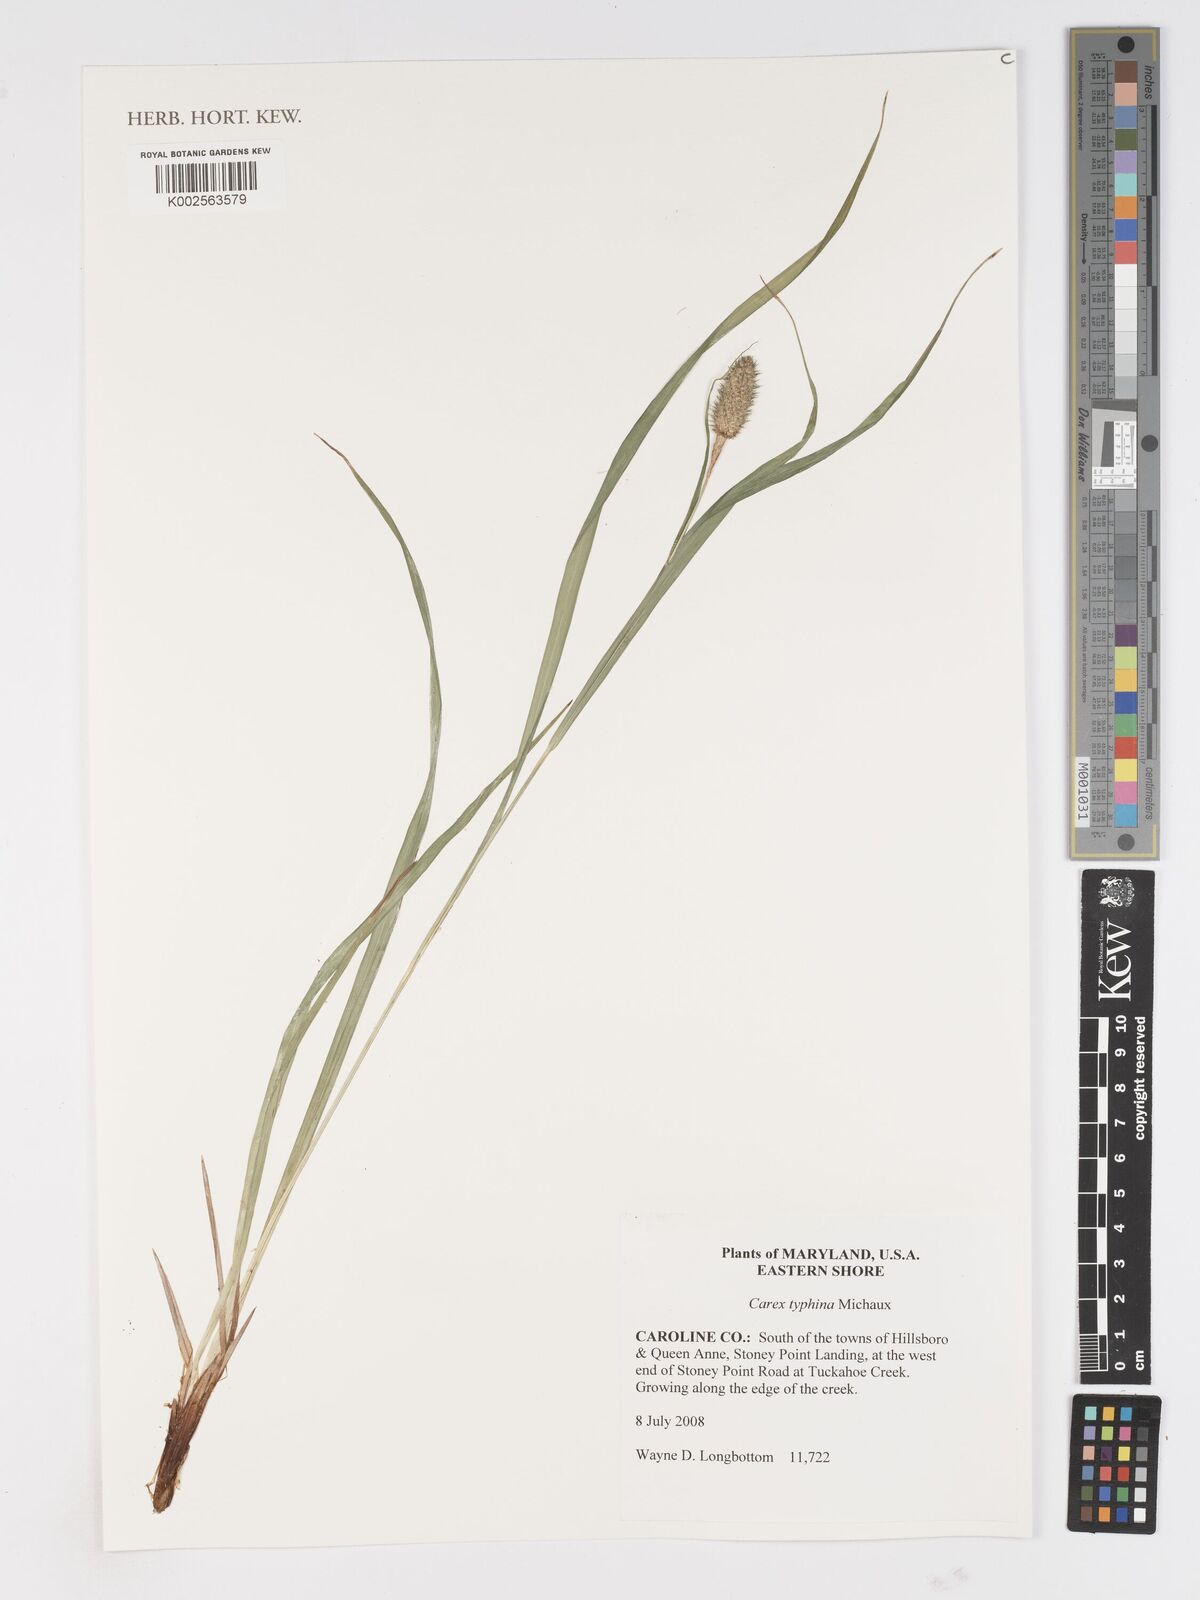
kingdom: Plantae
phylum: Tracheophyta
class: Liliopsida
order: Poales
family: Cyperaceae
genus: Carex
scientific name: Carex typhina
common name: Cattail sedge
